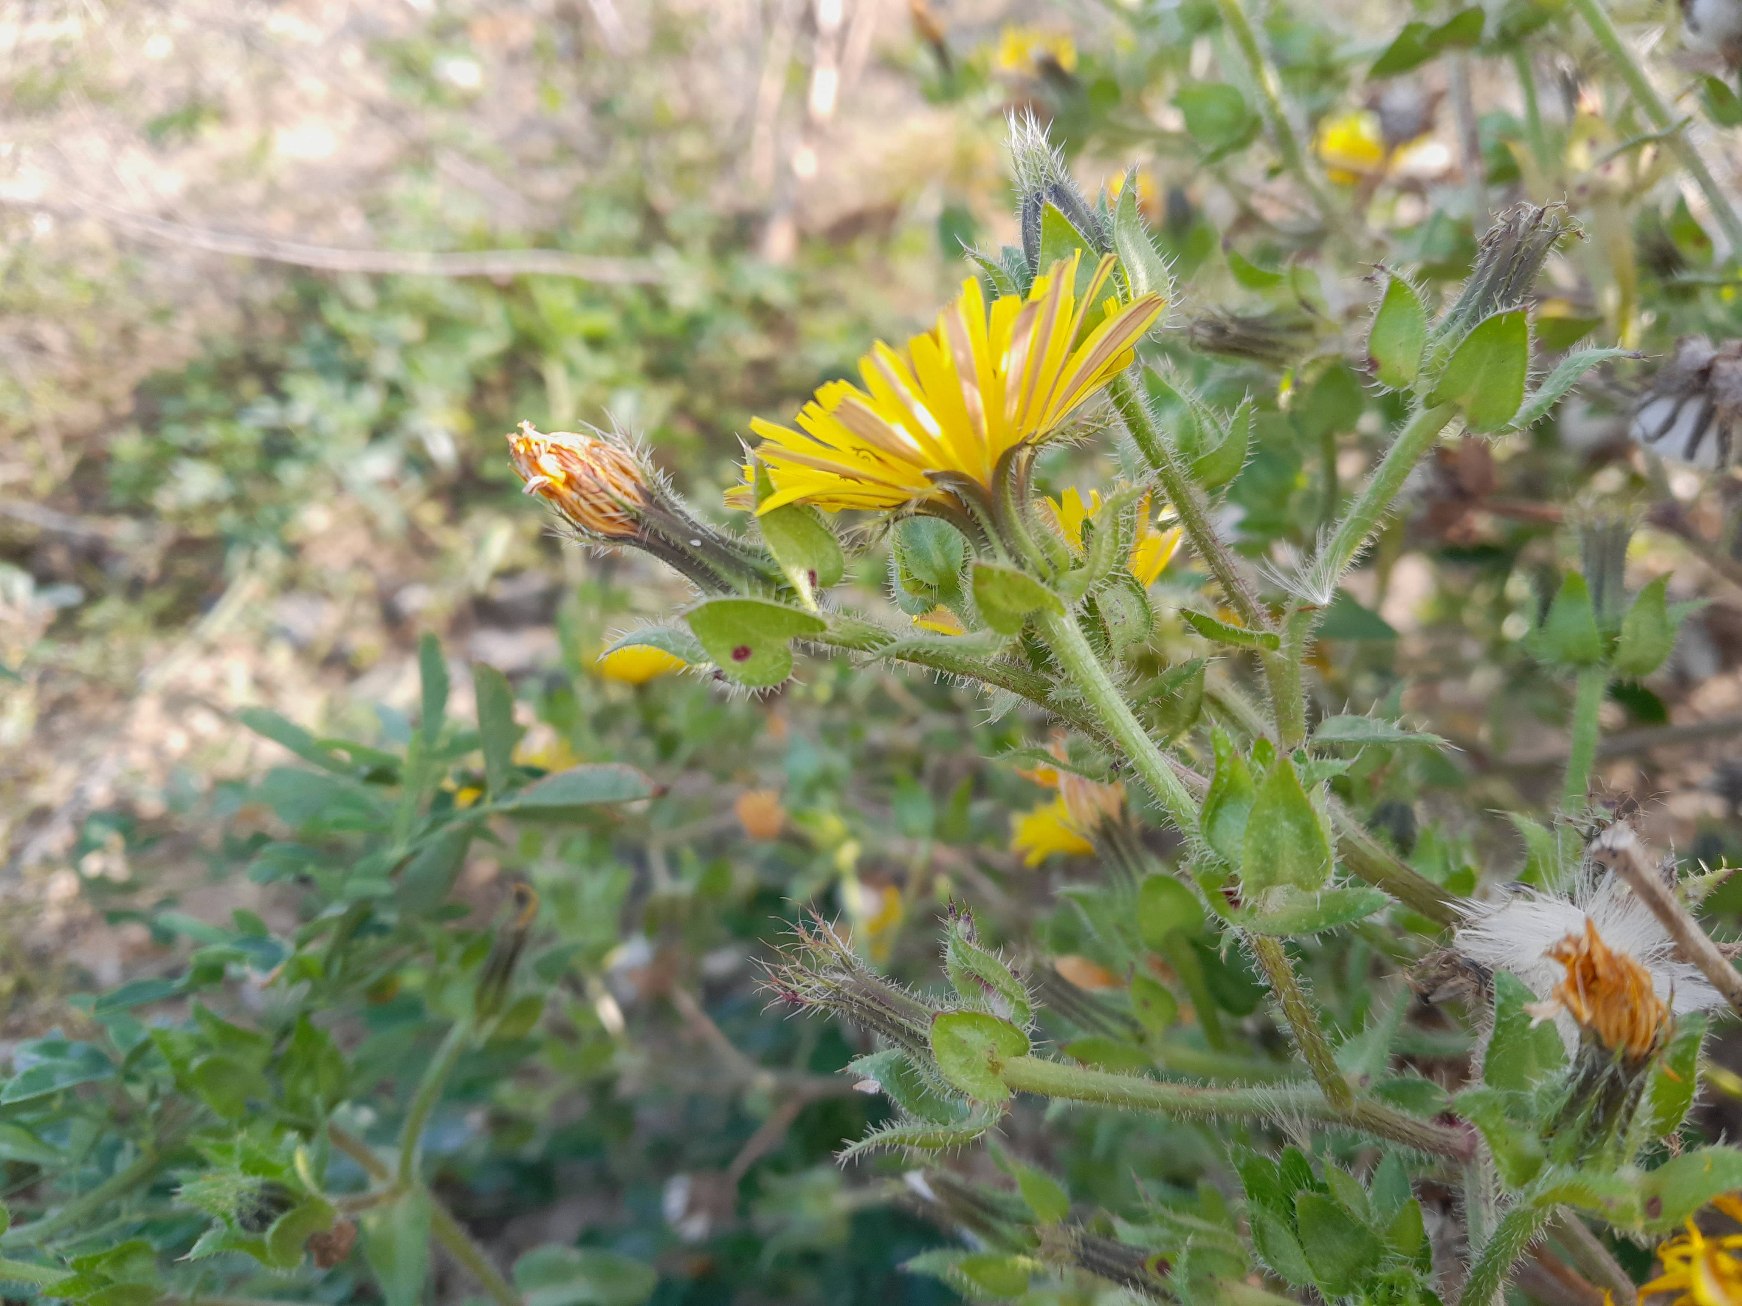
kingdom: Plantae
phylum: Tracheophyta
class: Magnoliopsida
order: Asterales
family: Asteraceae
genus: Helminthotheca
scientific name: Helminthotheca echioides
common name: Vingekurv
